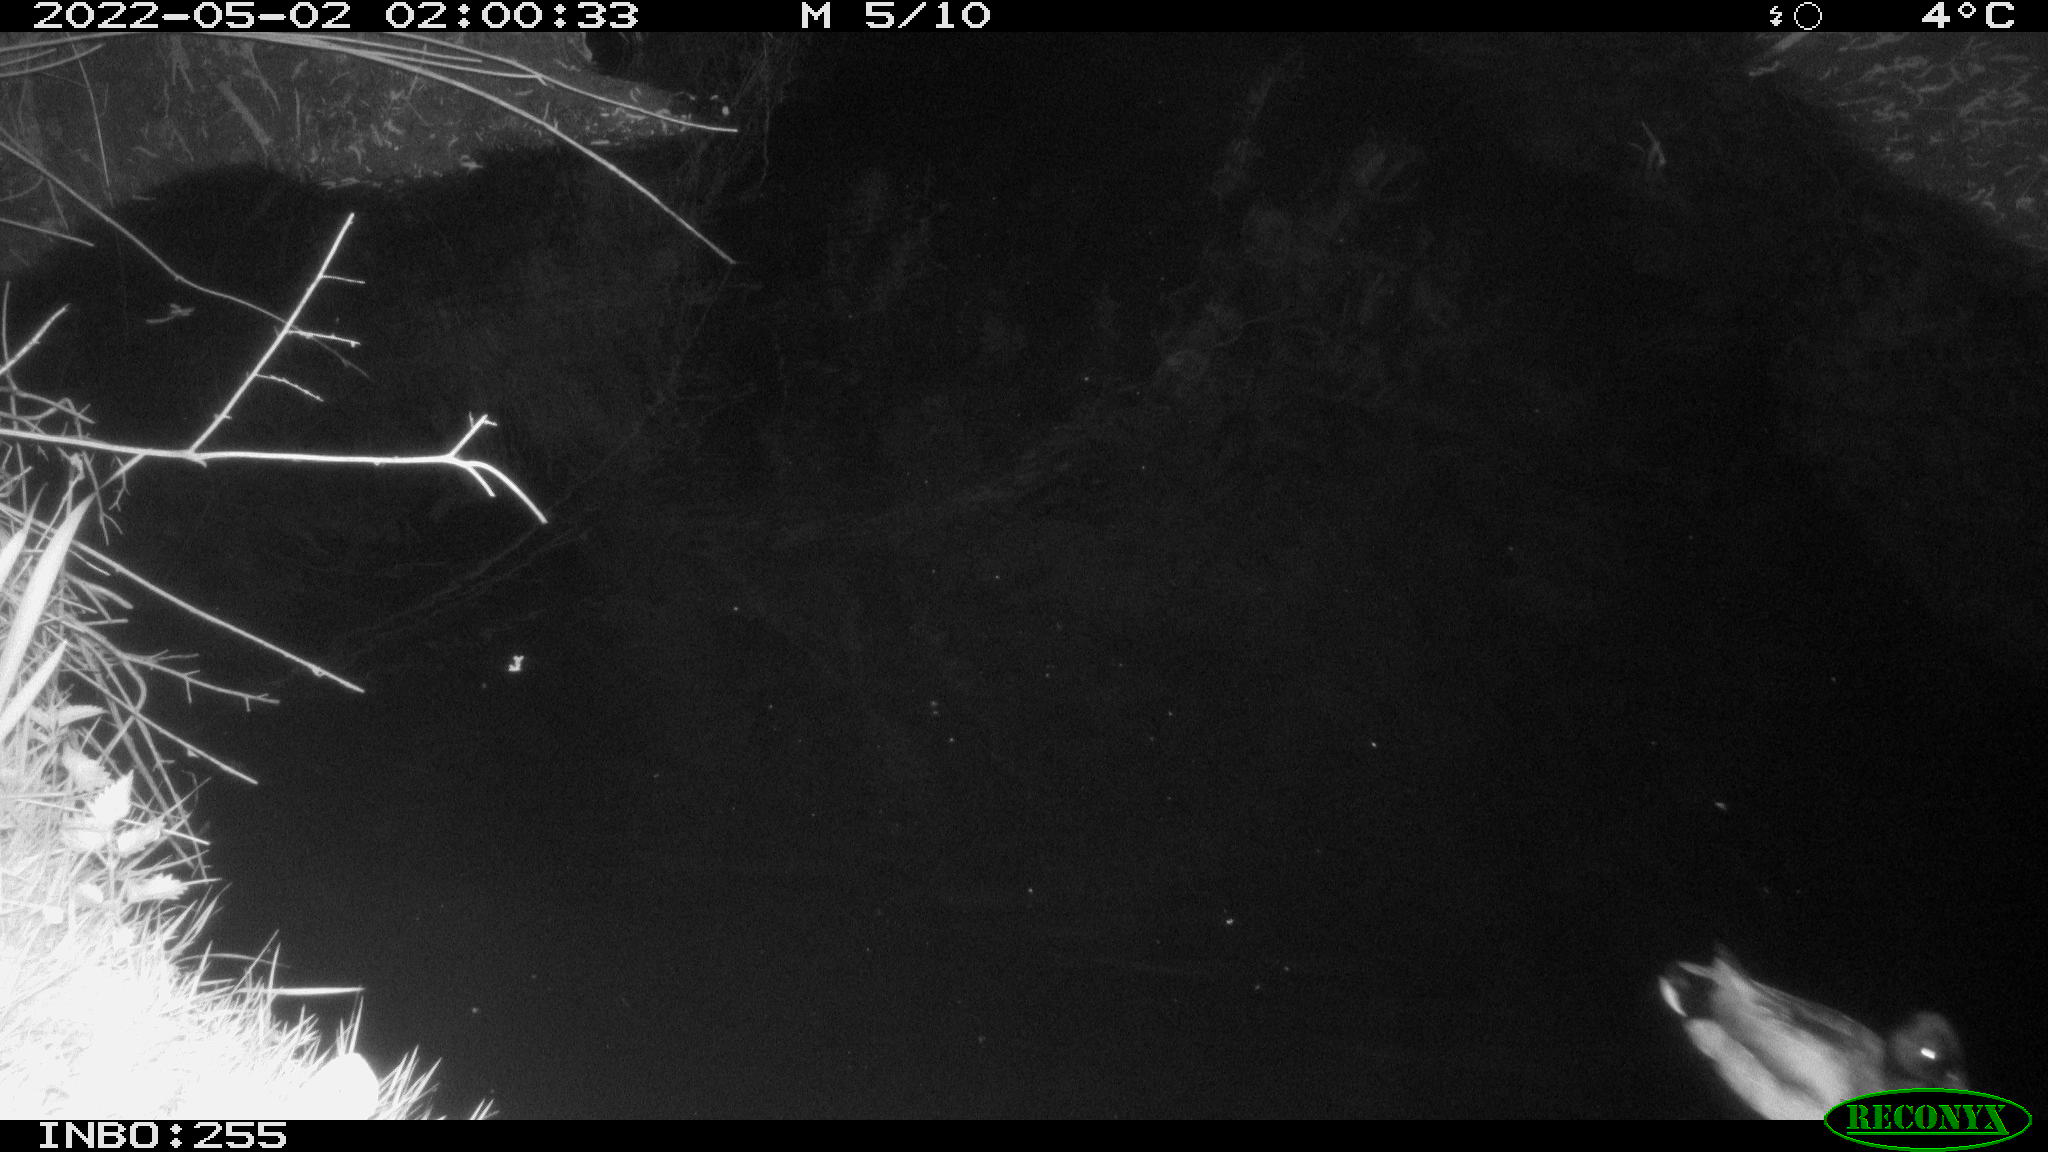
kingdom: Animalia
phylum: Chordata
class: Aves
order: Anseriformes
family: Anatidae
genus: Anas
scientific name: Anas platyrhynchos
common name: Mallard
